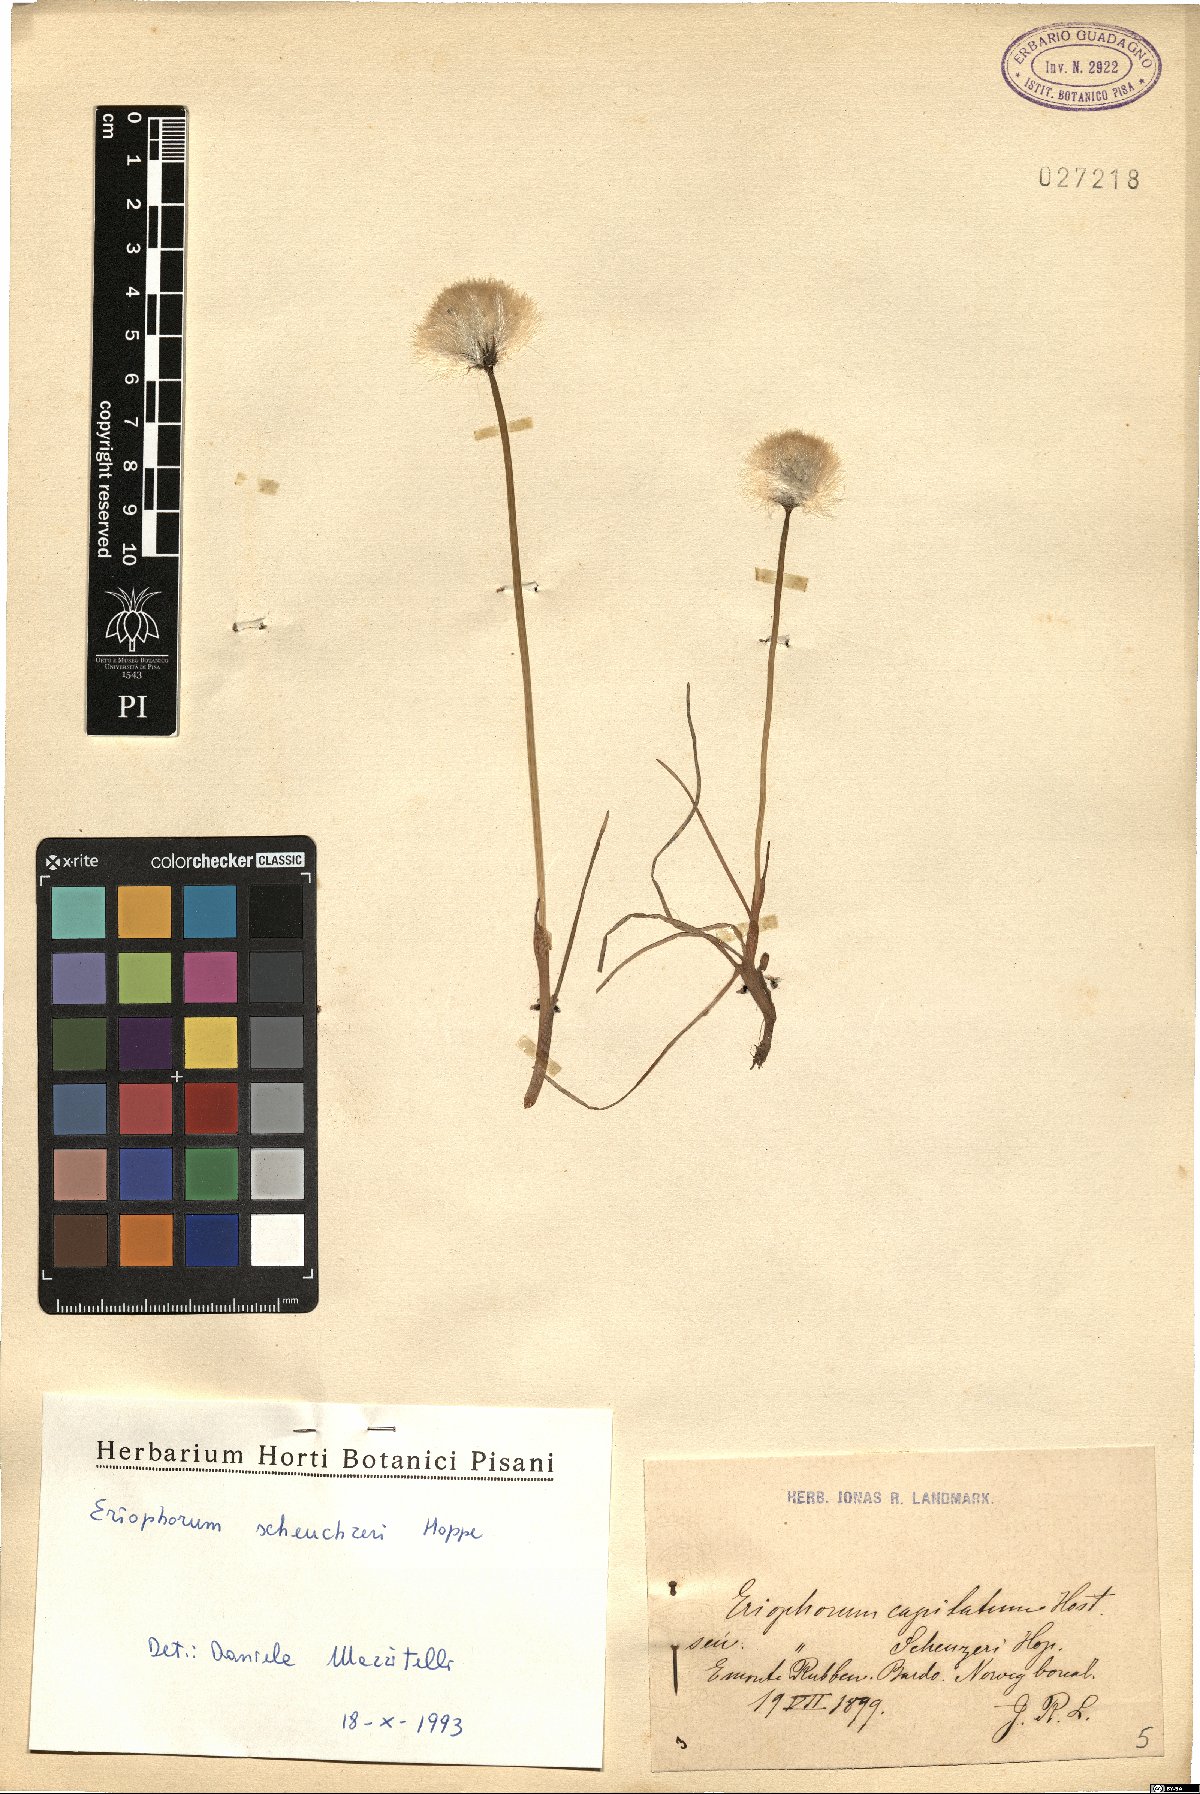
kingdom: Plantae
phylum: Tracheophyta
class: Liliopsida
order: Poales
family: Cyperaceae
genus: Eriophorum
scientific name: Eriophorum scheuchzeri
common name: Scheuchzer's cottongrass
